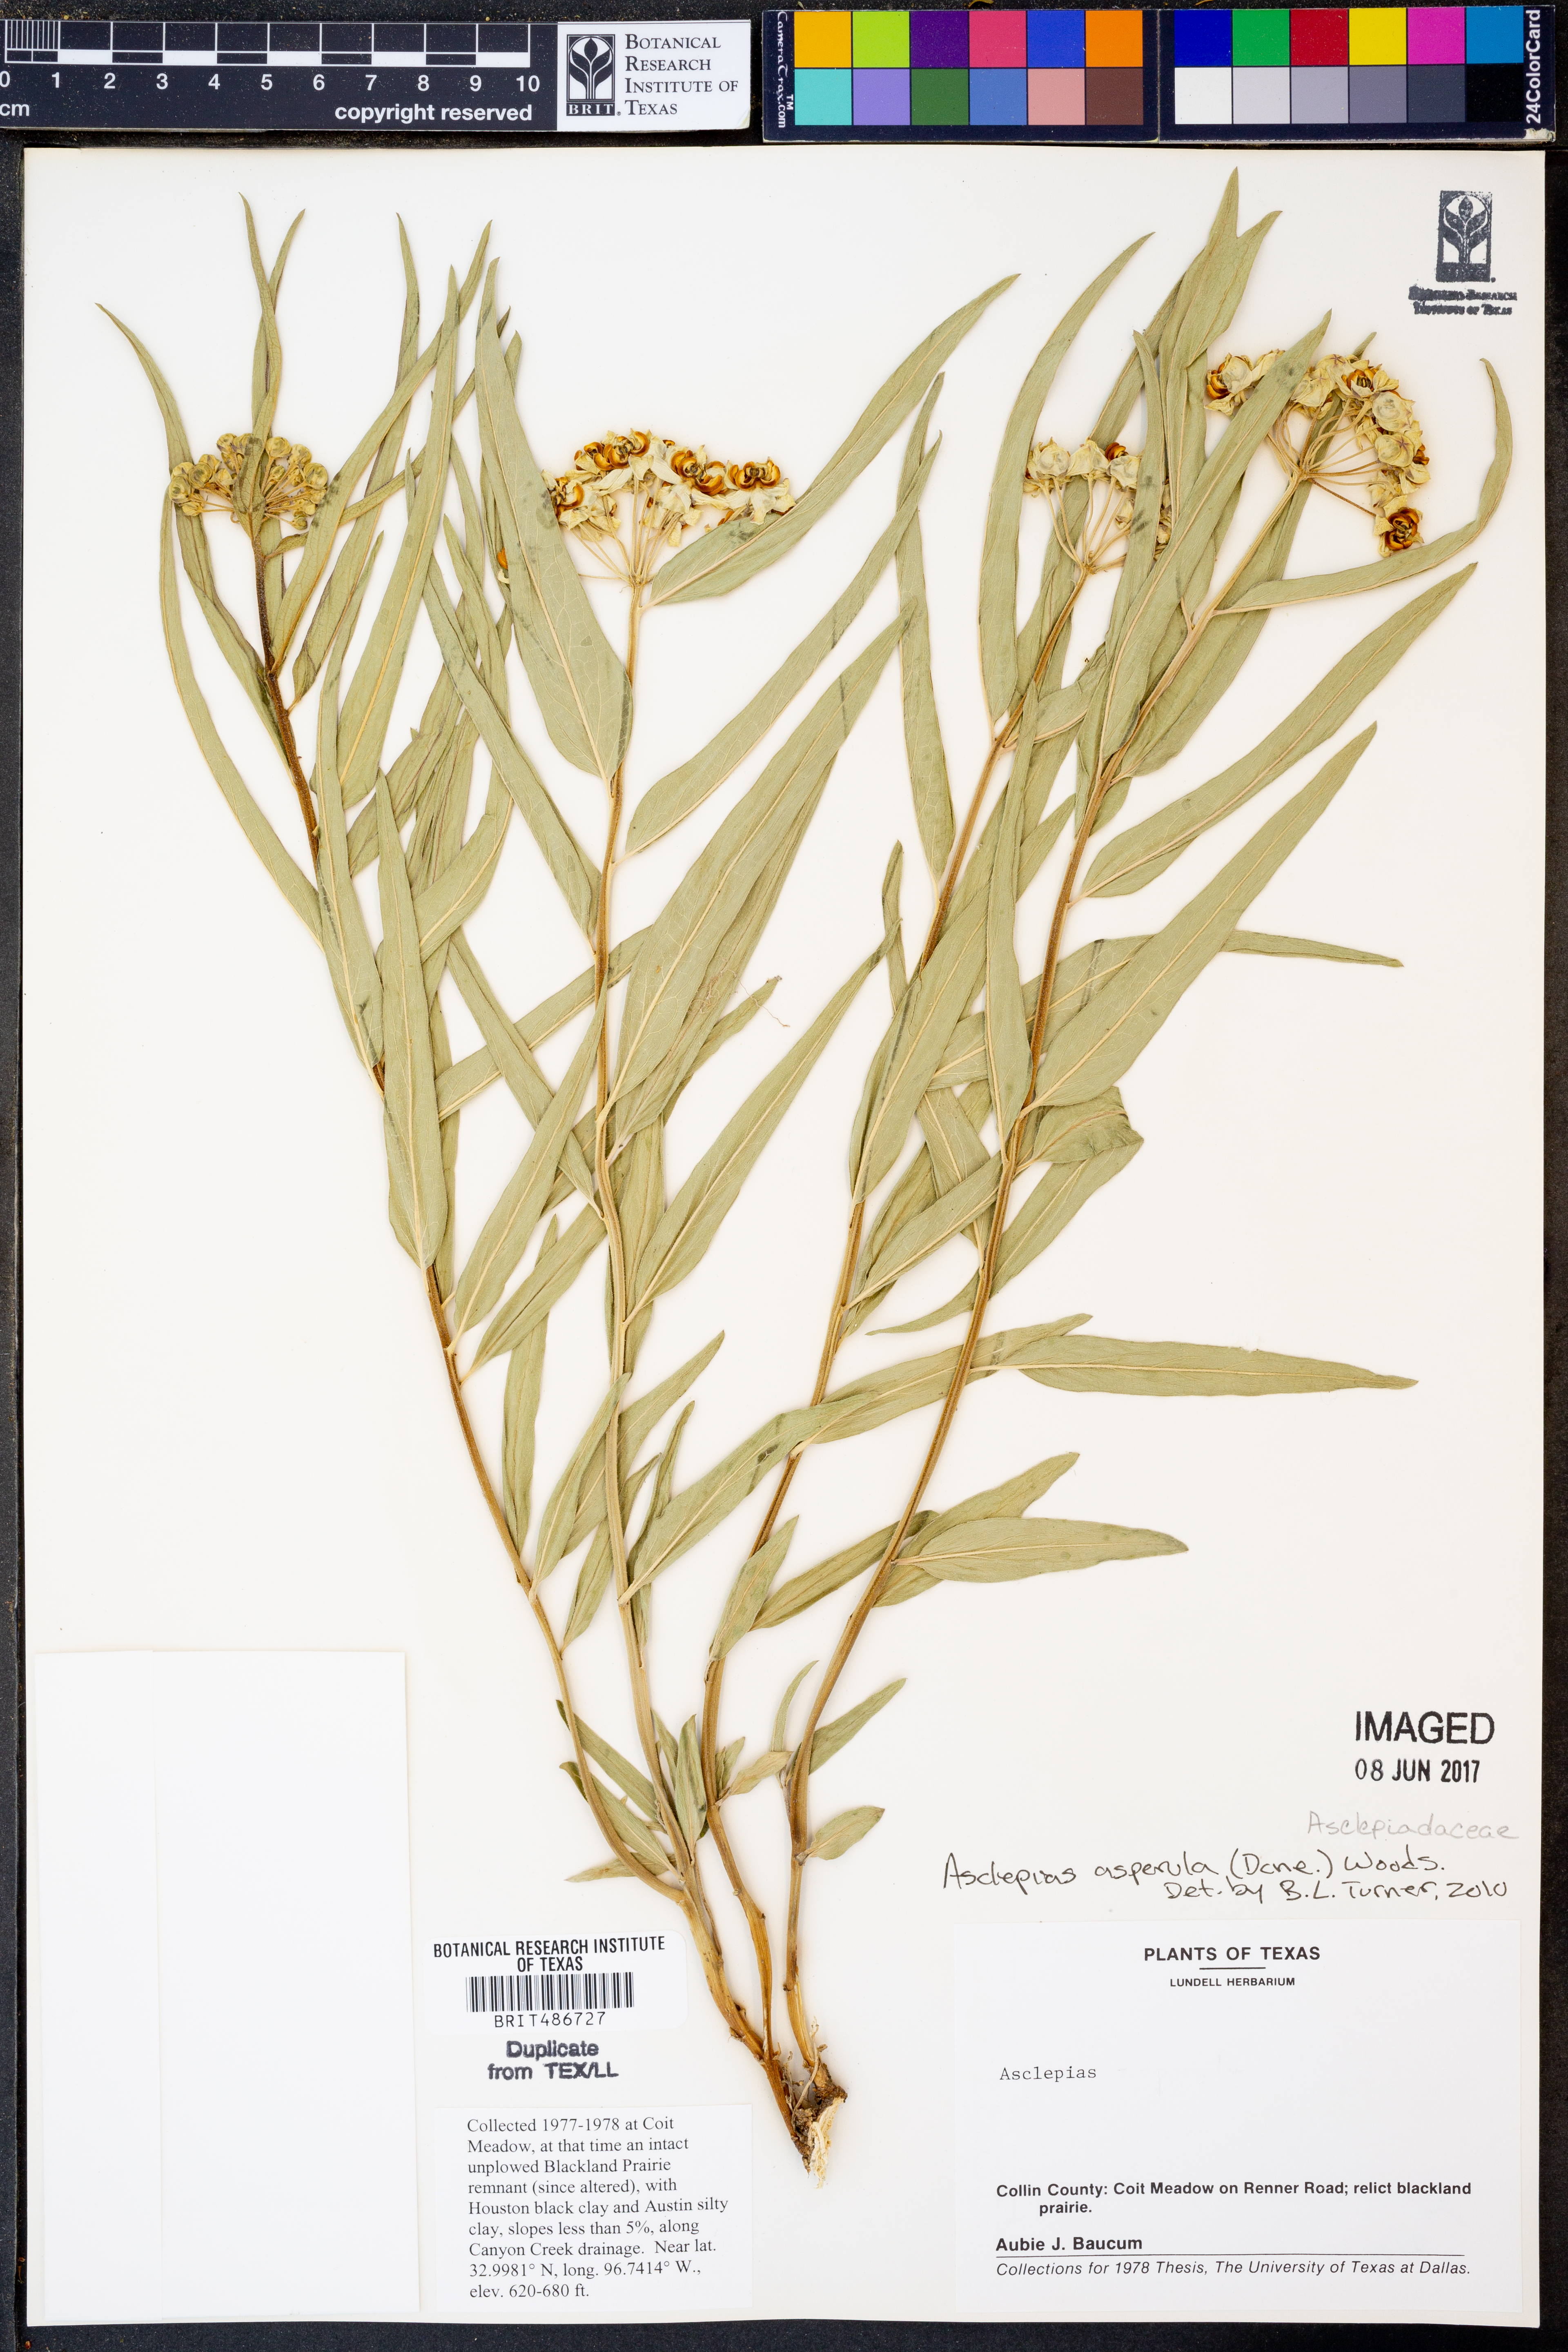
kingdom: Plantae
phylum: Tracheophyta
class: Magnoliopsida
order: Gentianales
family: Apocynaceae
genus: Asclepias
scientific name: Asclepias asperula
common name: Antelope horns
